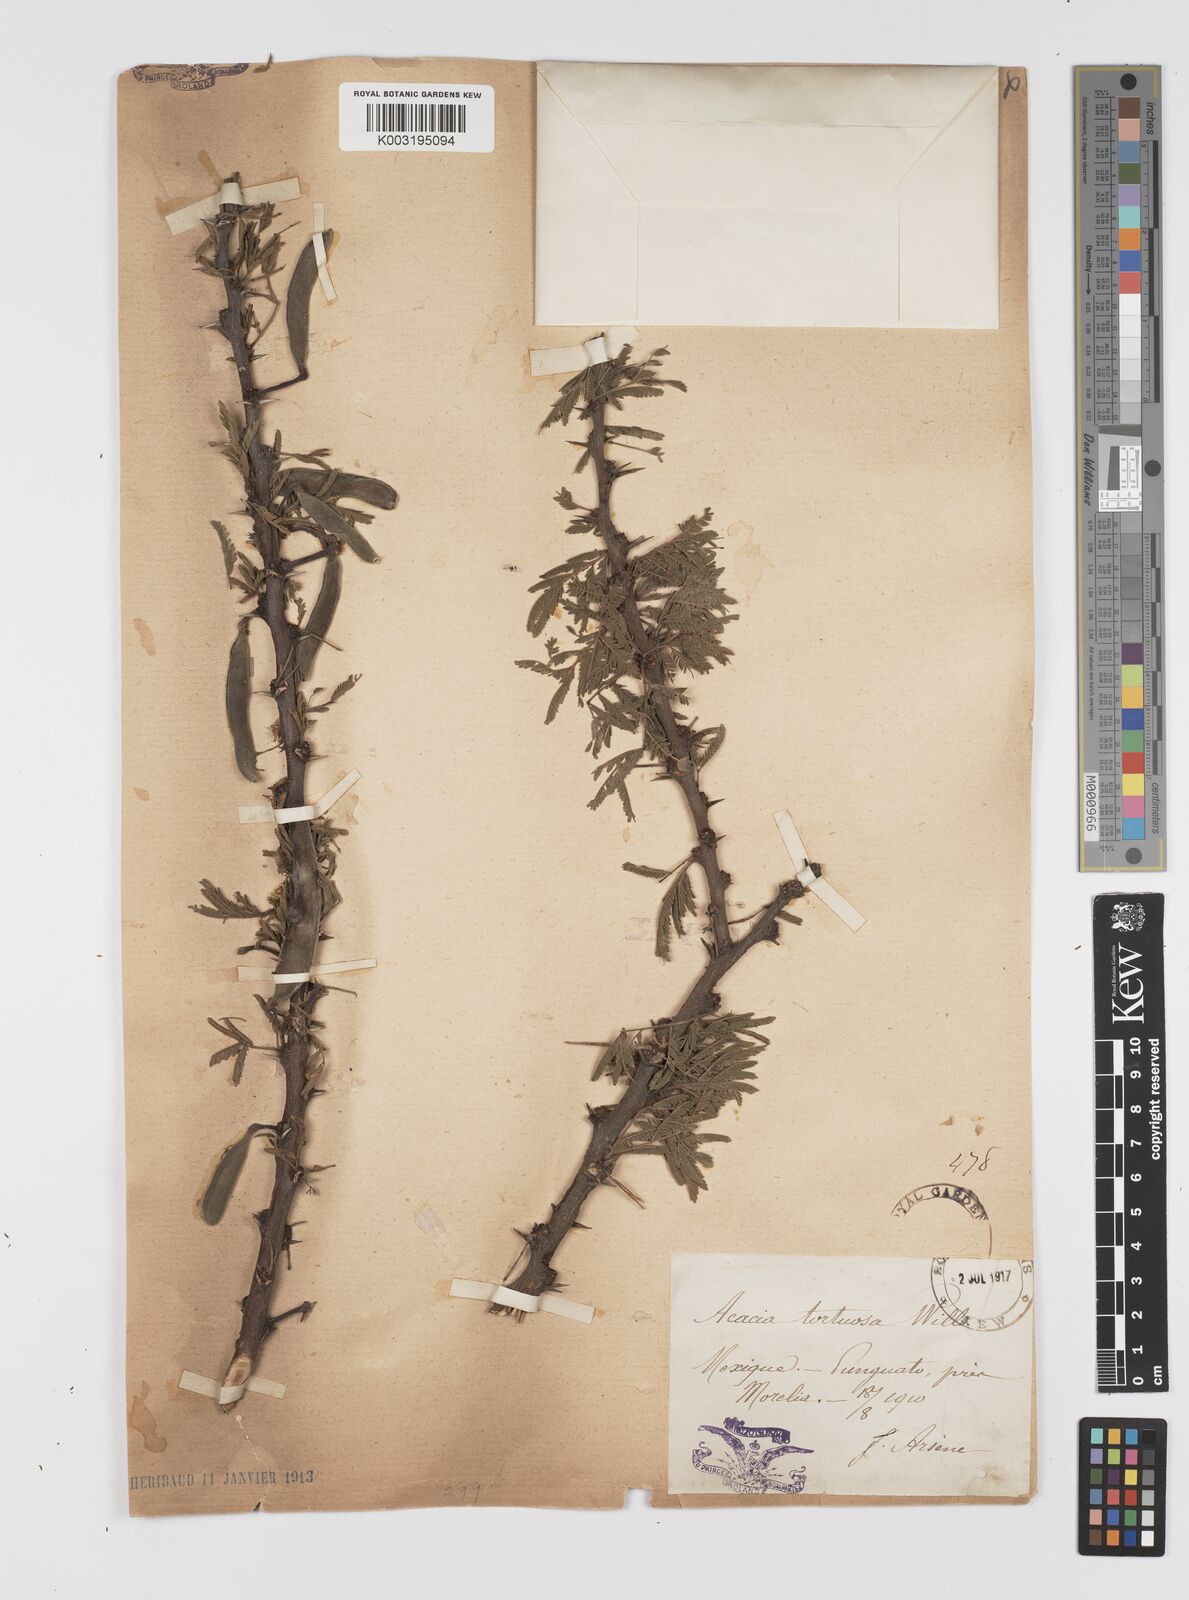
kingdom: Plantae
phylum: Tracheophyta
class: Magnoliopsida
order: Fabales
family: Fabaceae
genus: Vachellia
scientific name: Vachellia schaffneri
